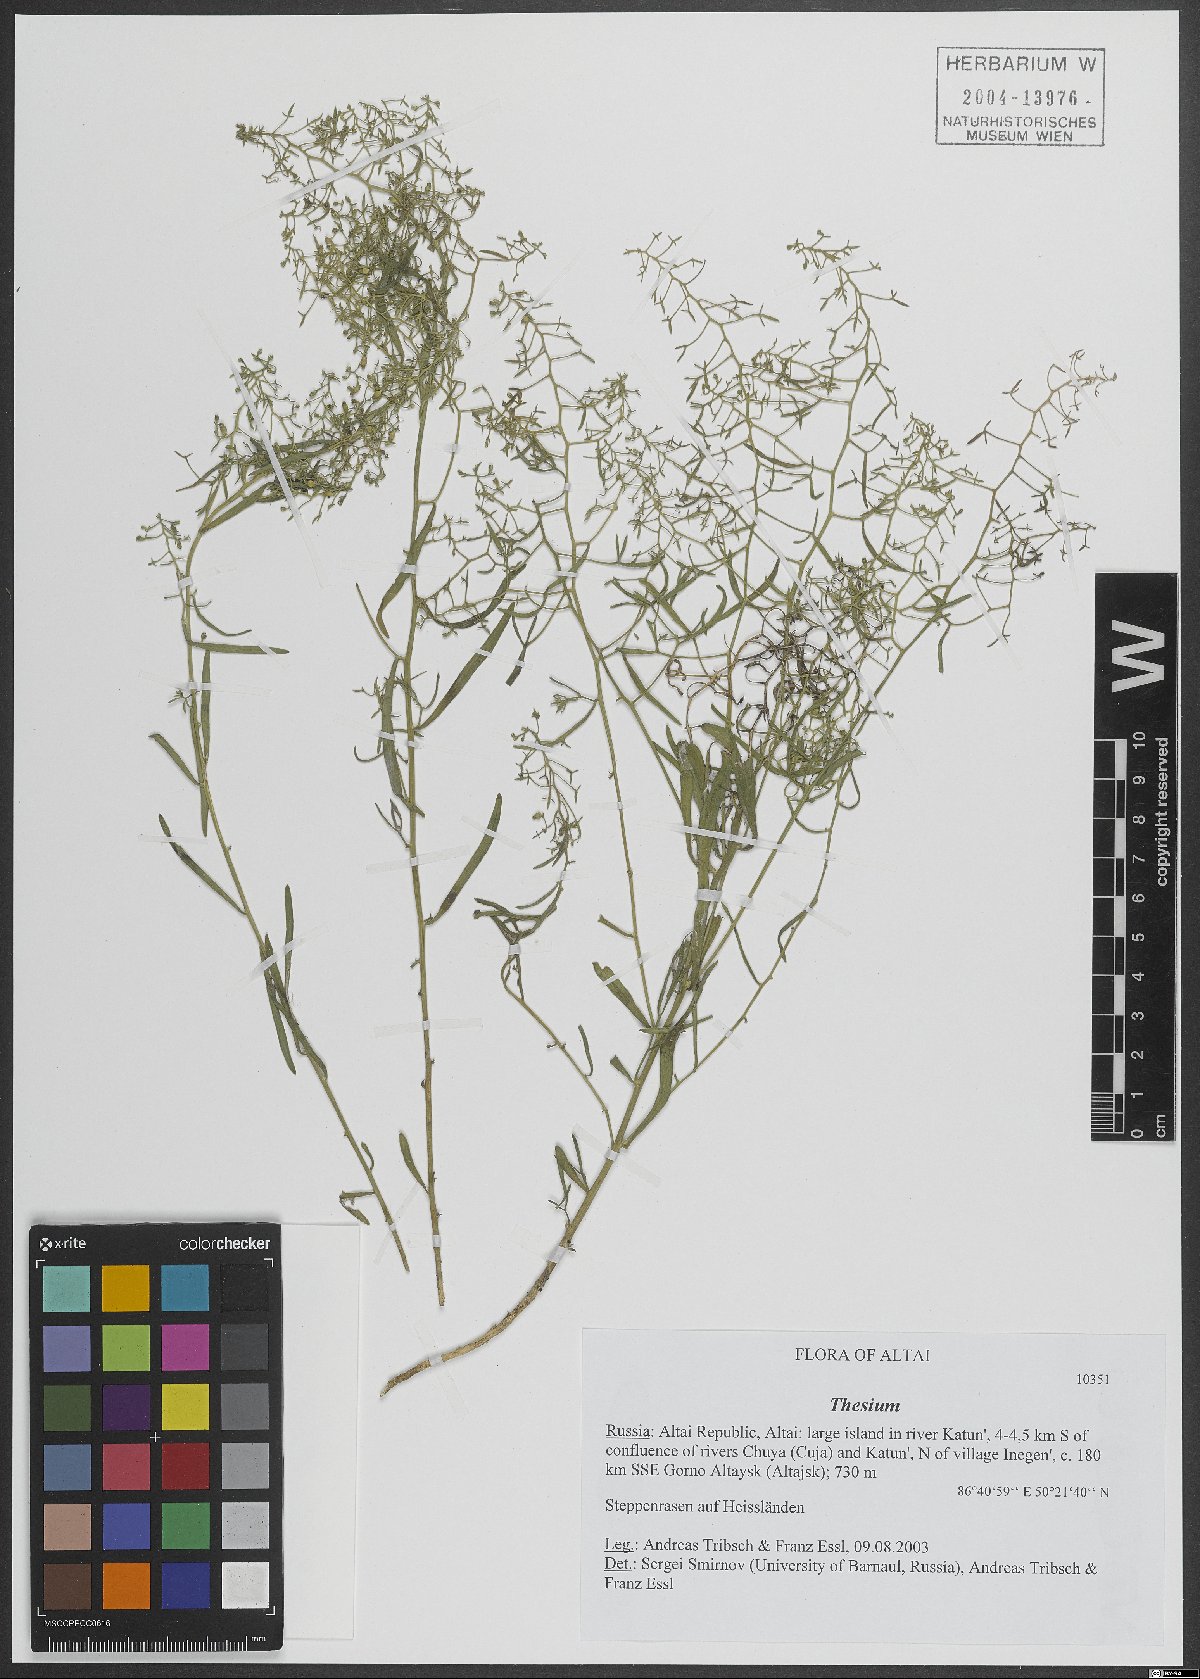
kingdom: Plantae
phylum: Tracheophyta
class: Magnoliopsida
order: Santalales
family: Thesiaceae
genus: Thesium
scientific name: Thesium
